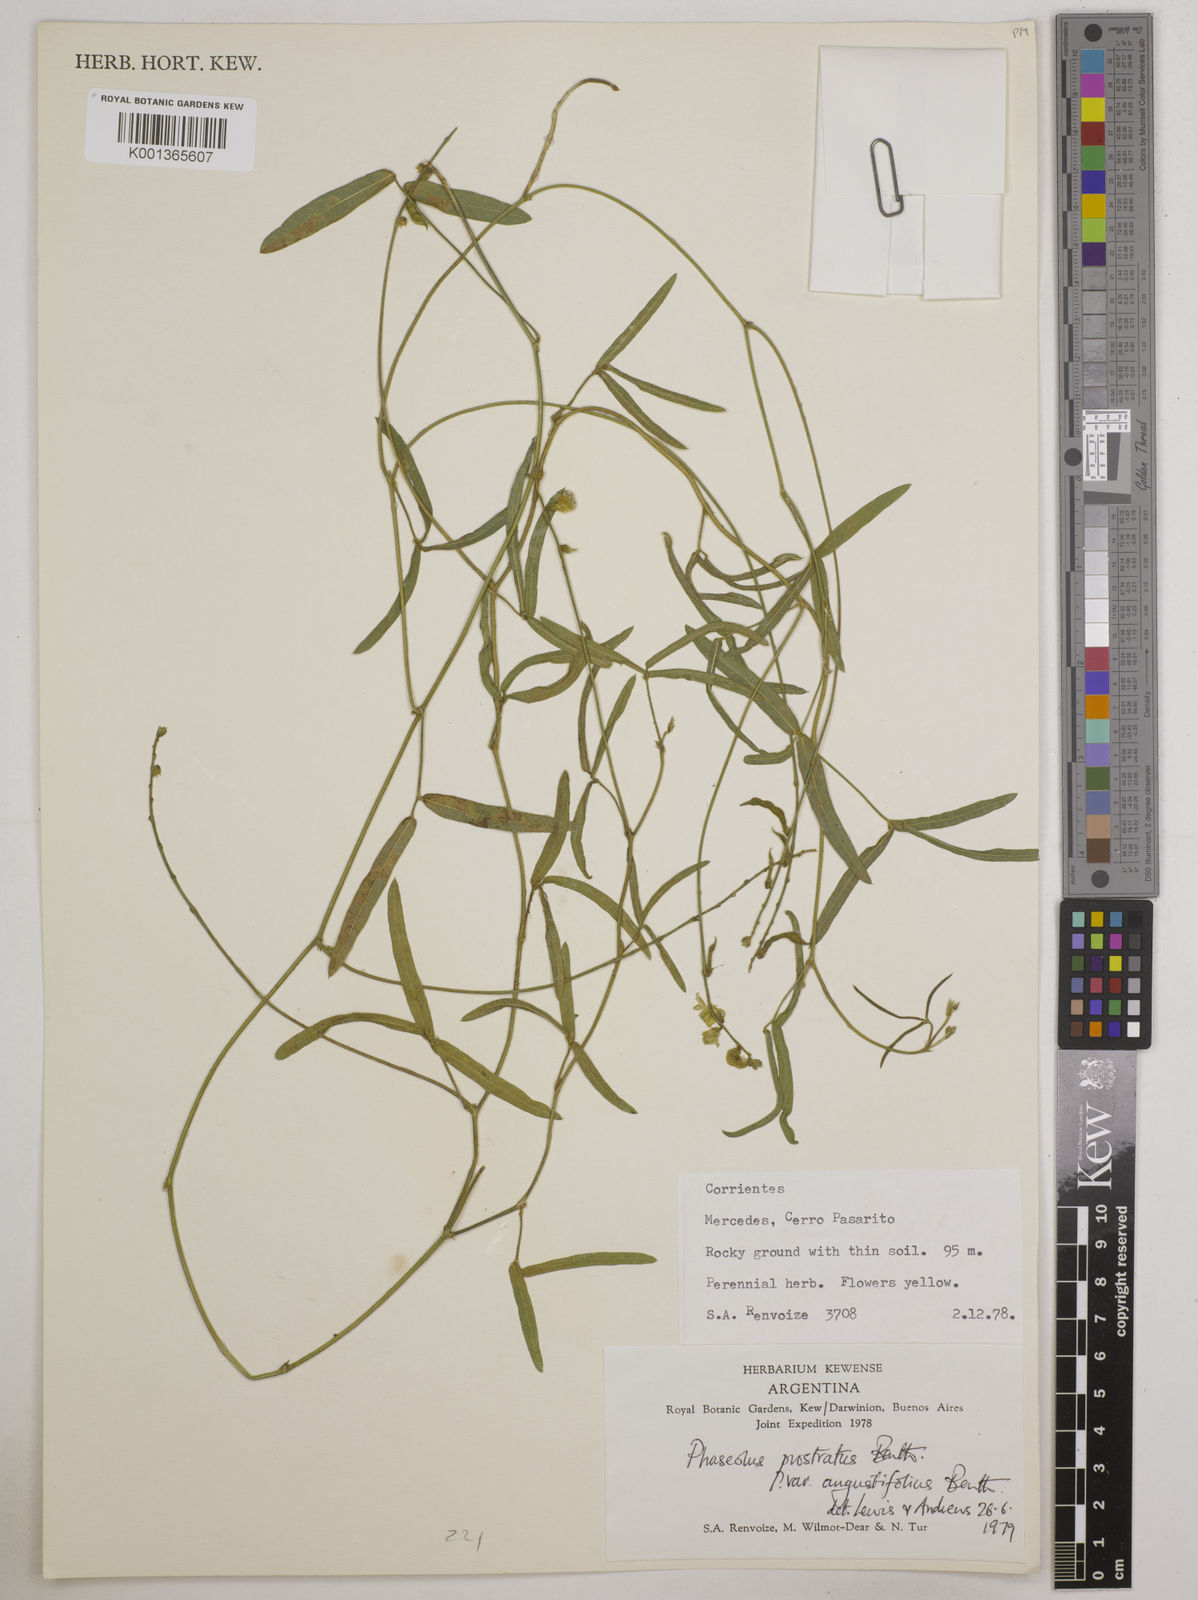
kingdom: Plantae
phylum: Tracheophyta
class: Magnoliopsida
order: Fabales
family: Fabaceae
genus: Macroptilium
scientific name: Macroptilium prostratum
